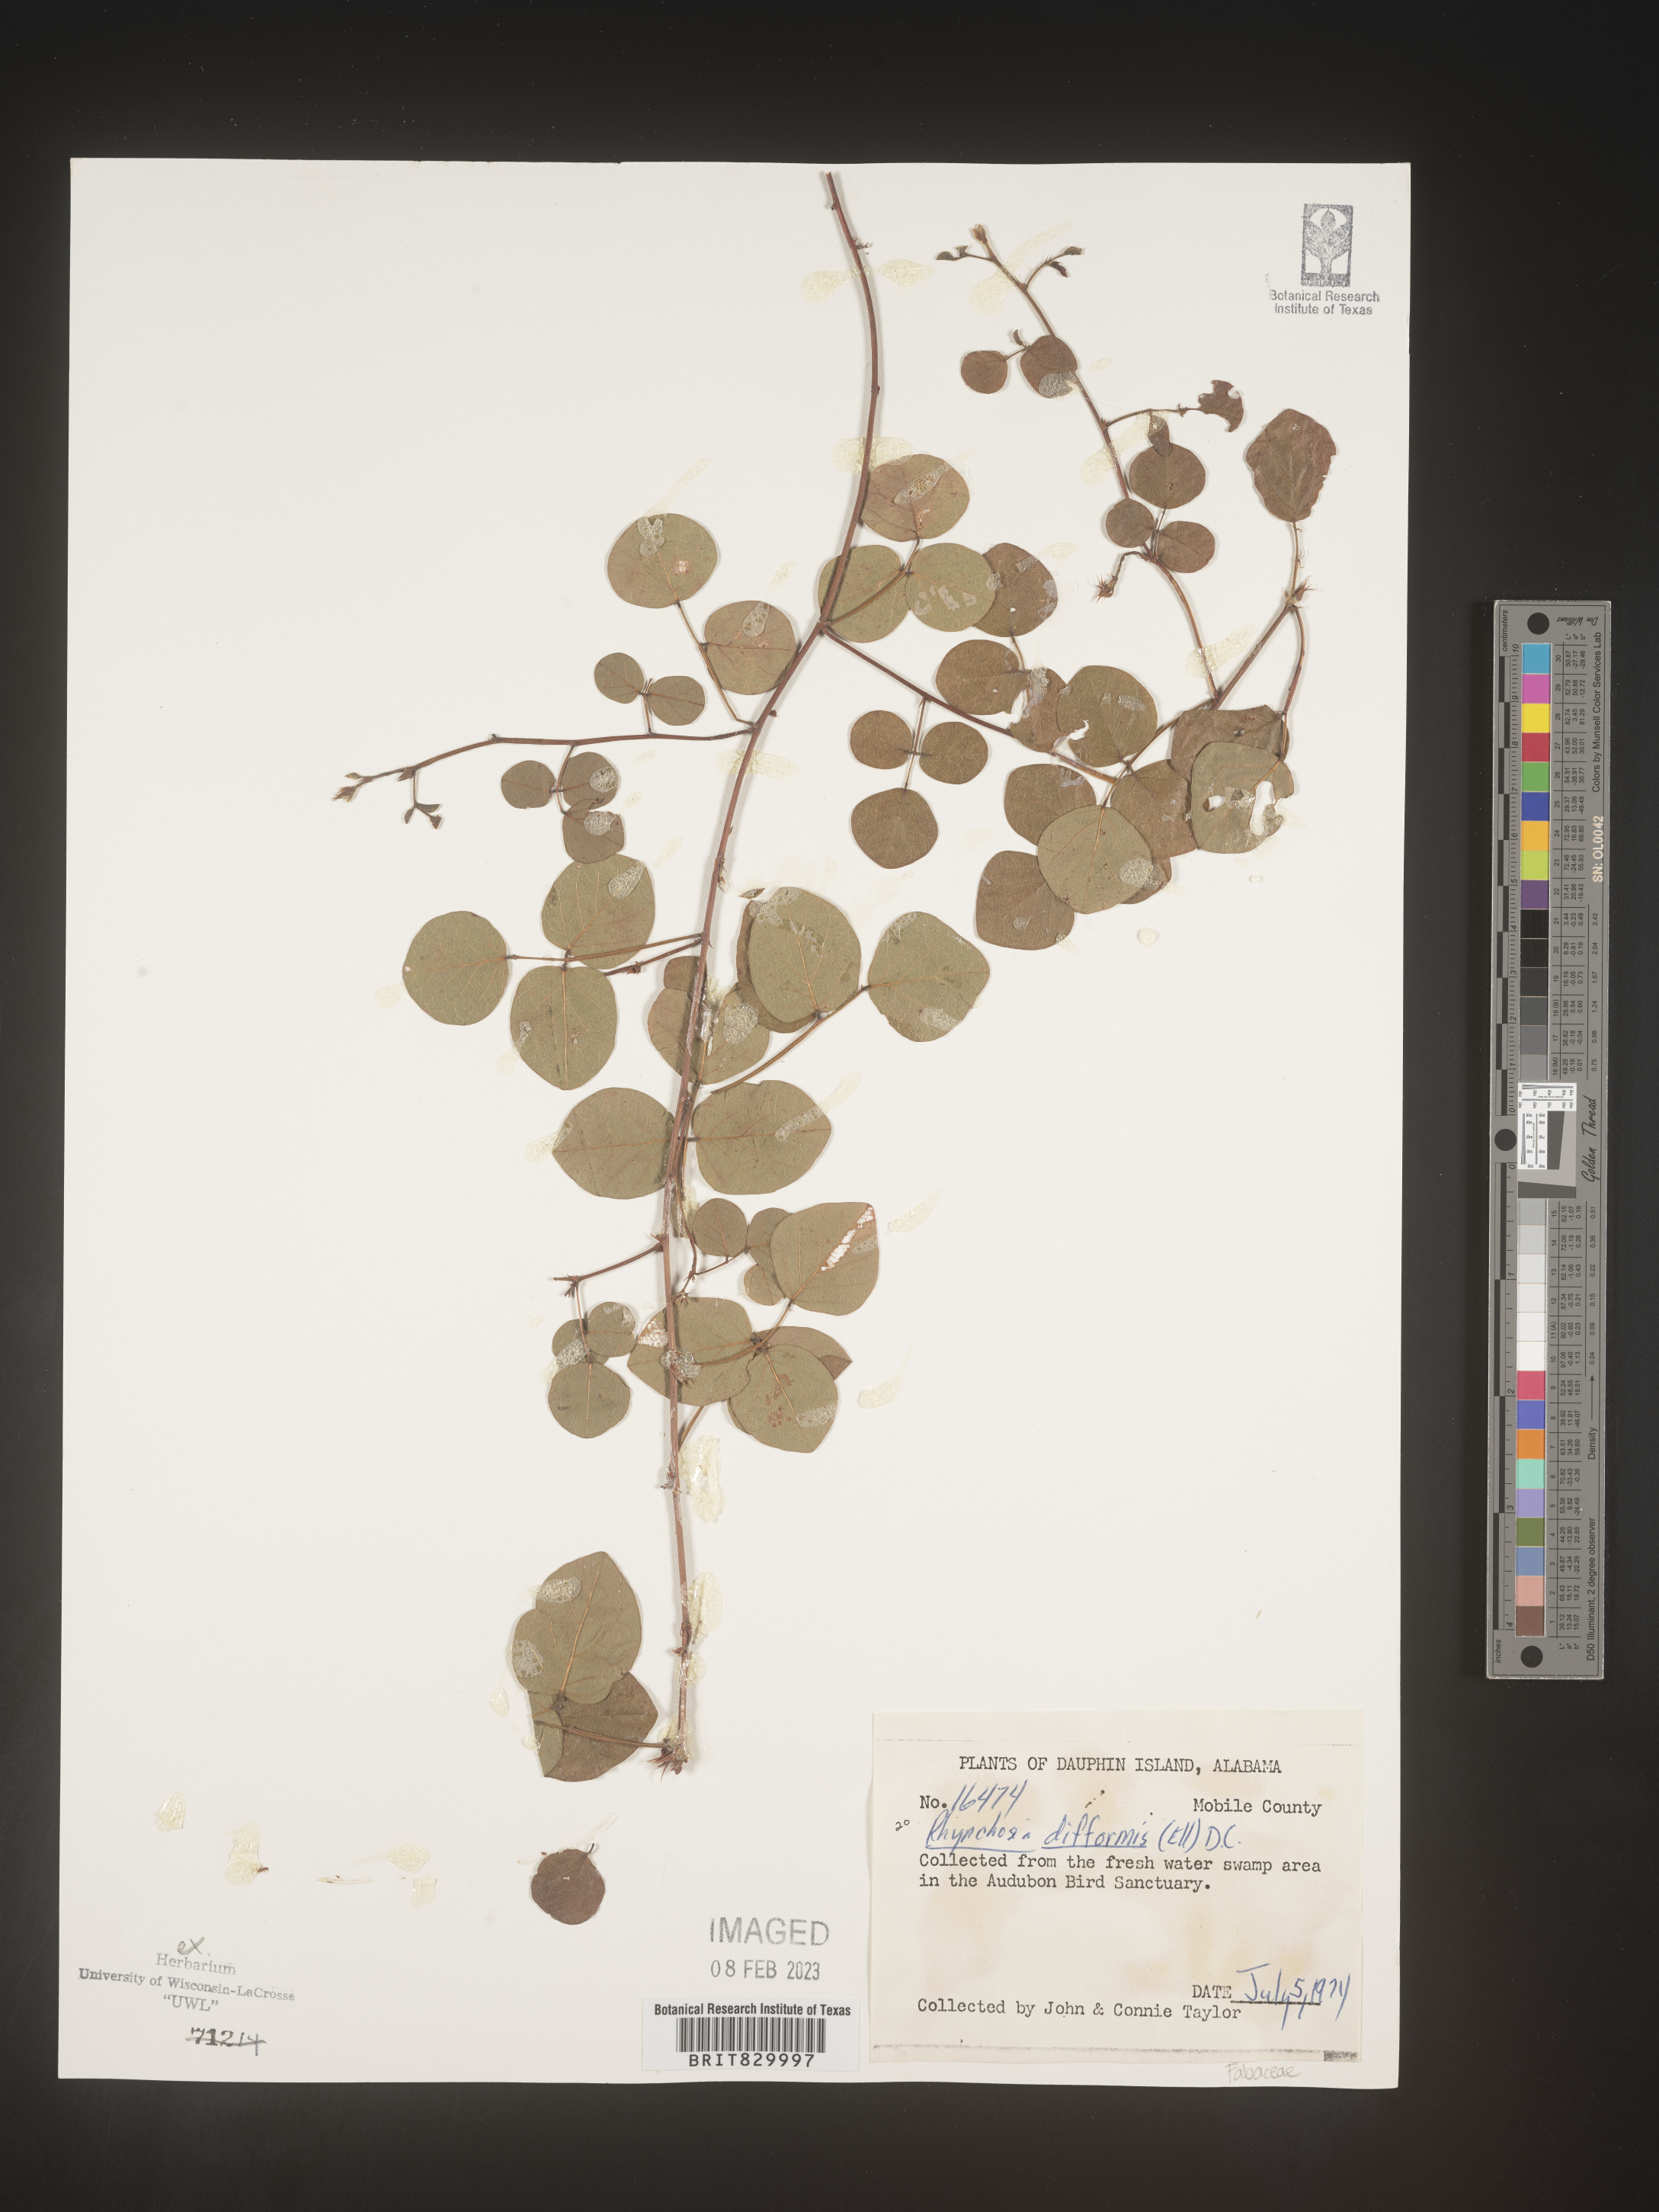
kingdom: Plantae
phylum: Tracheophyta
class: Magnoliopsida
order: Fabales
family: Fabaceae
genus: Rhynchosia
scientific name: Rhynchosia difformis
